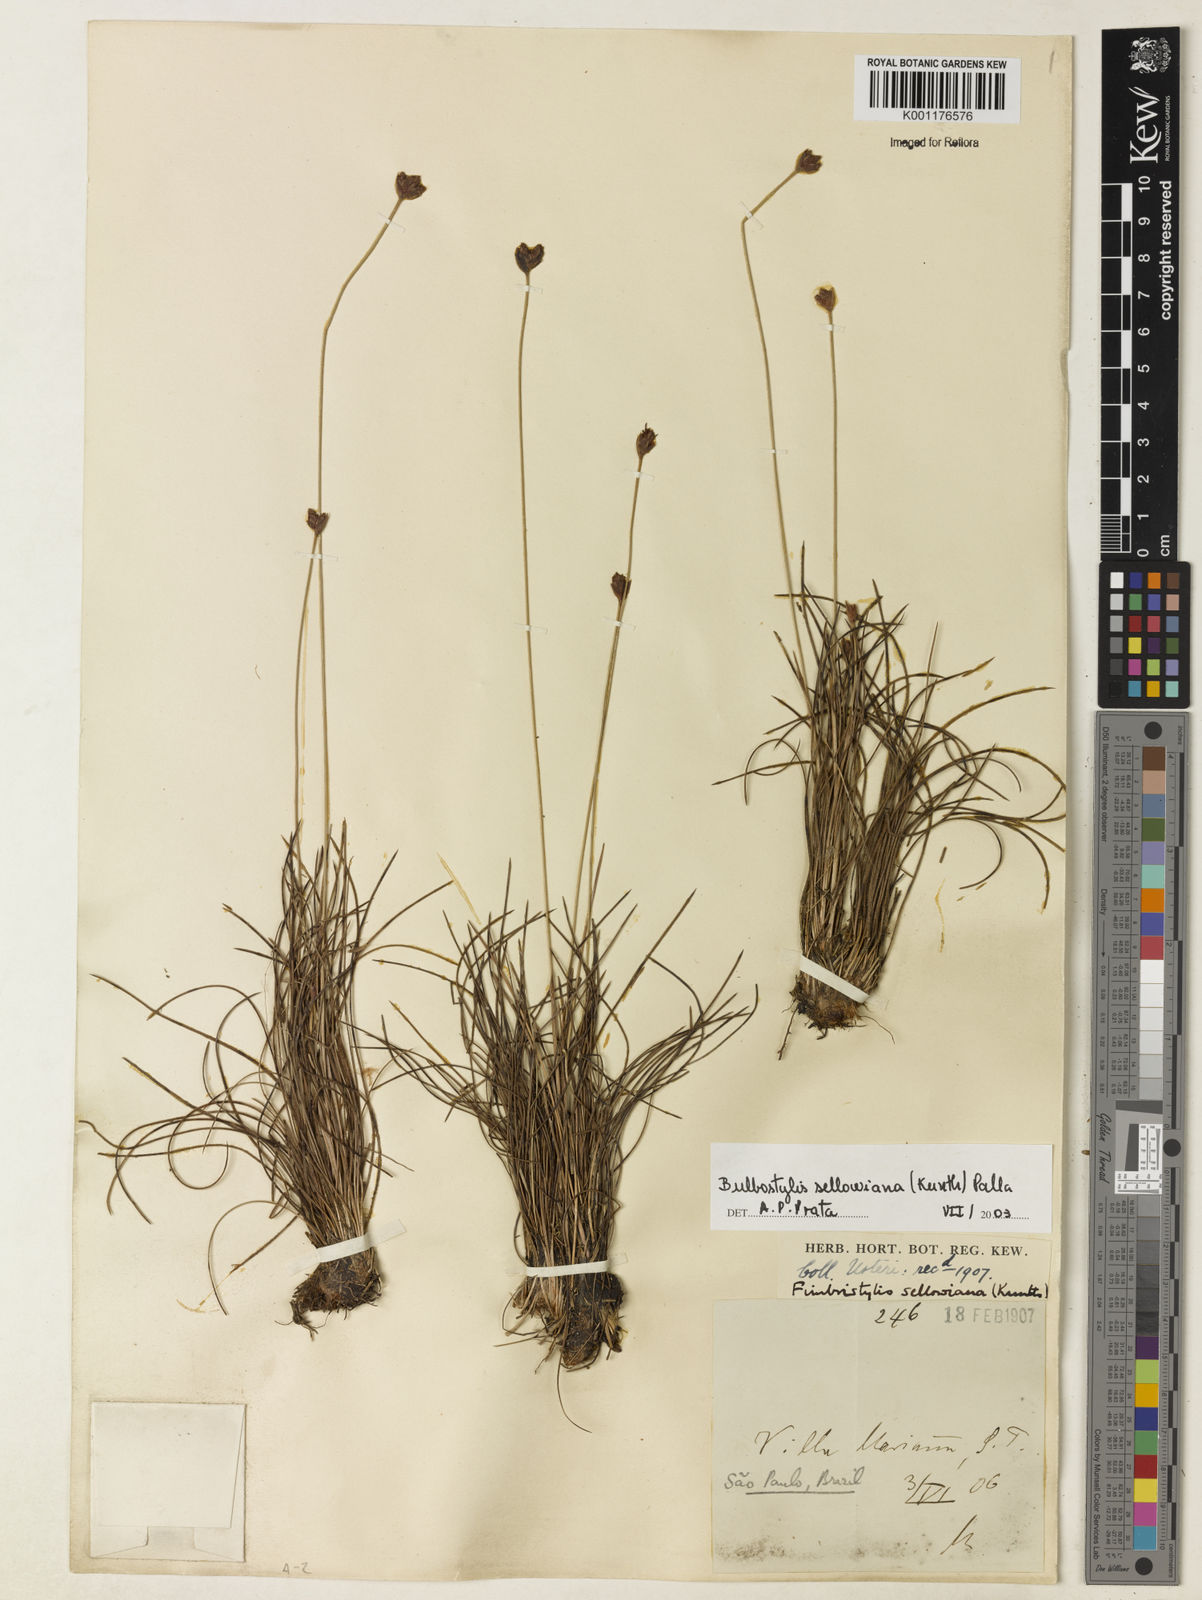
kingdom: Plantae
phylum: Tracheophyta
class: Liliopsida
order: Poales
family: Cyperaceae
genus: Bulbostylis
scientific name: Bulbostylis sellowiana
